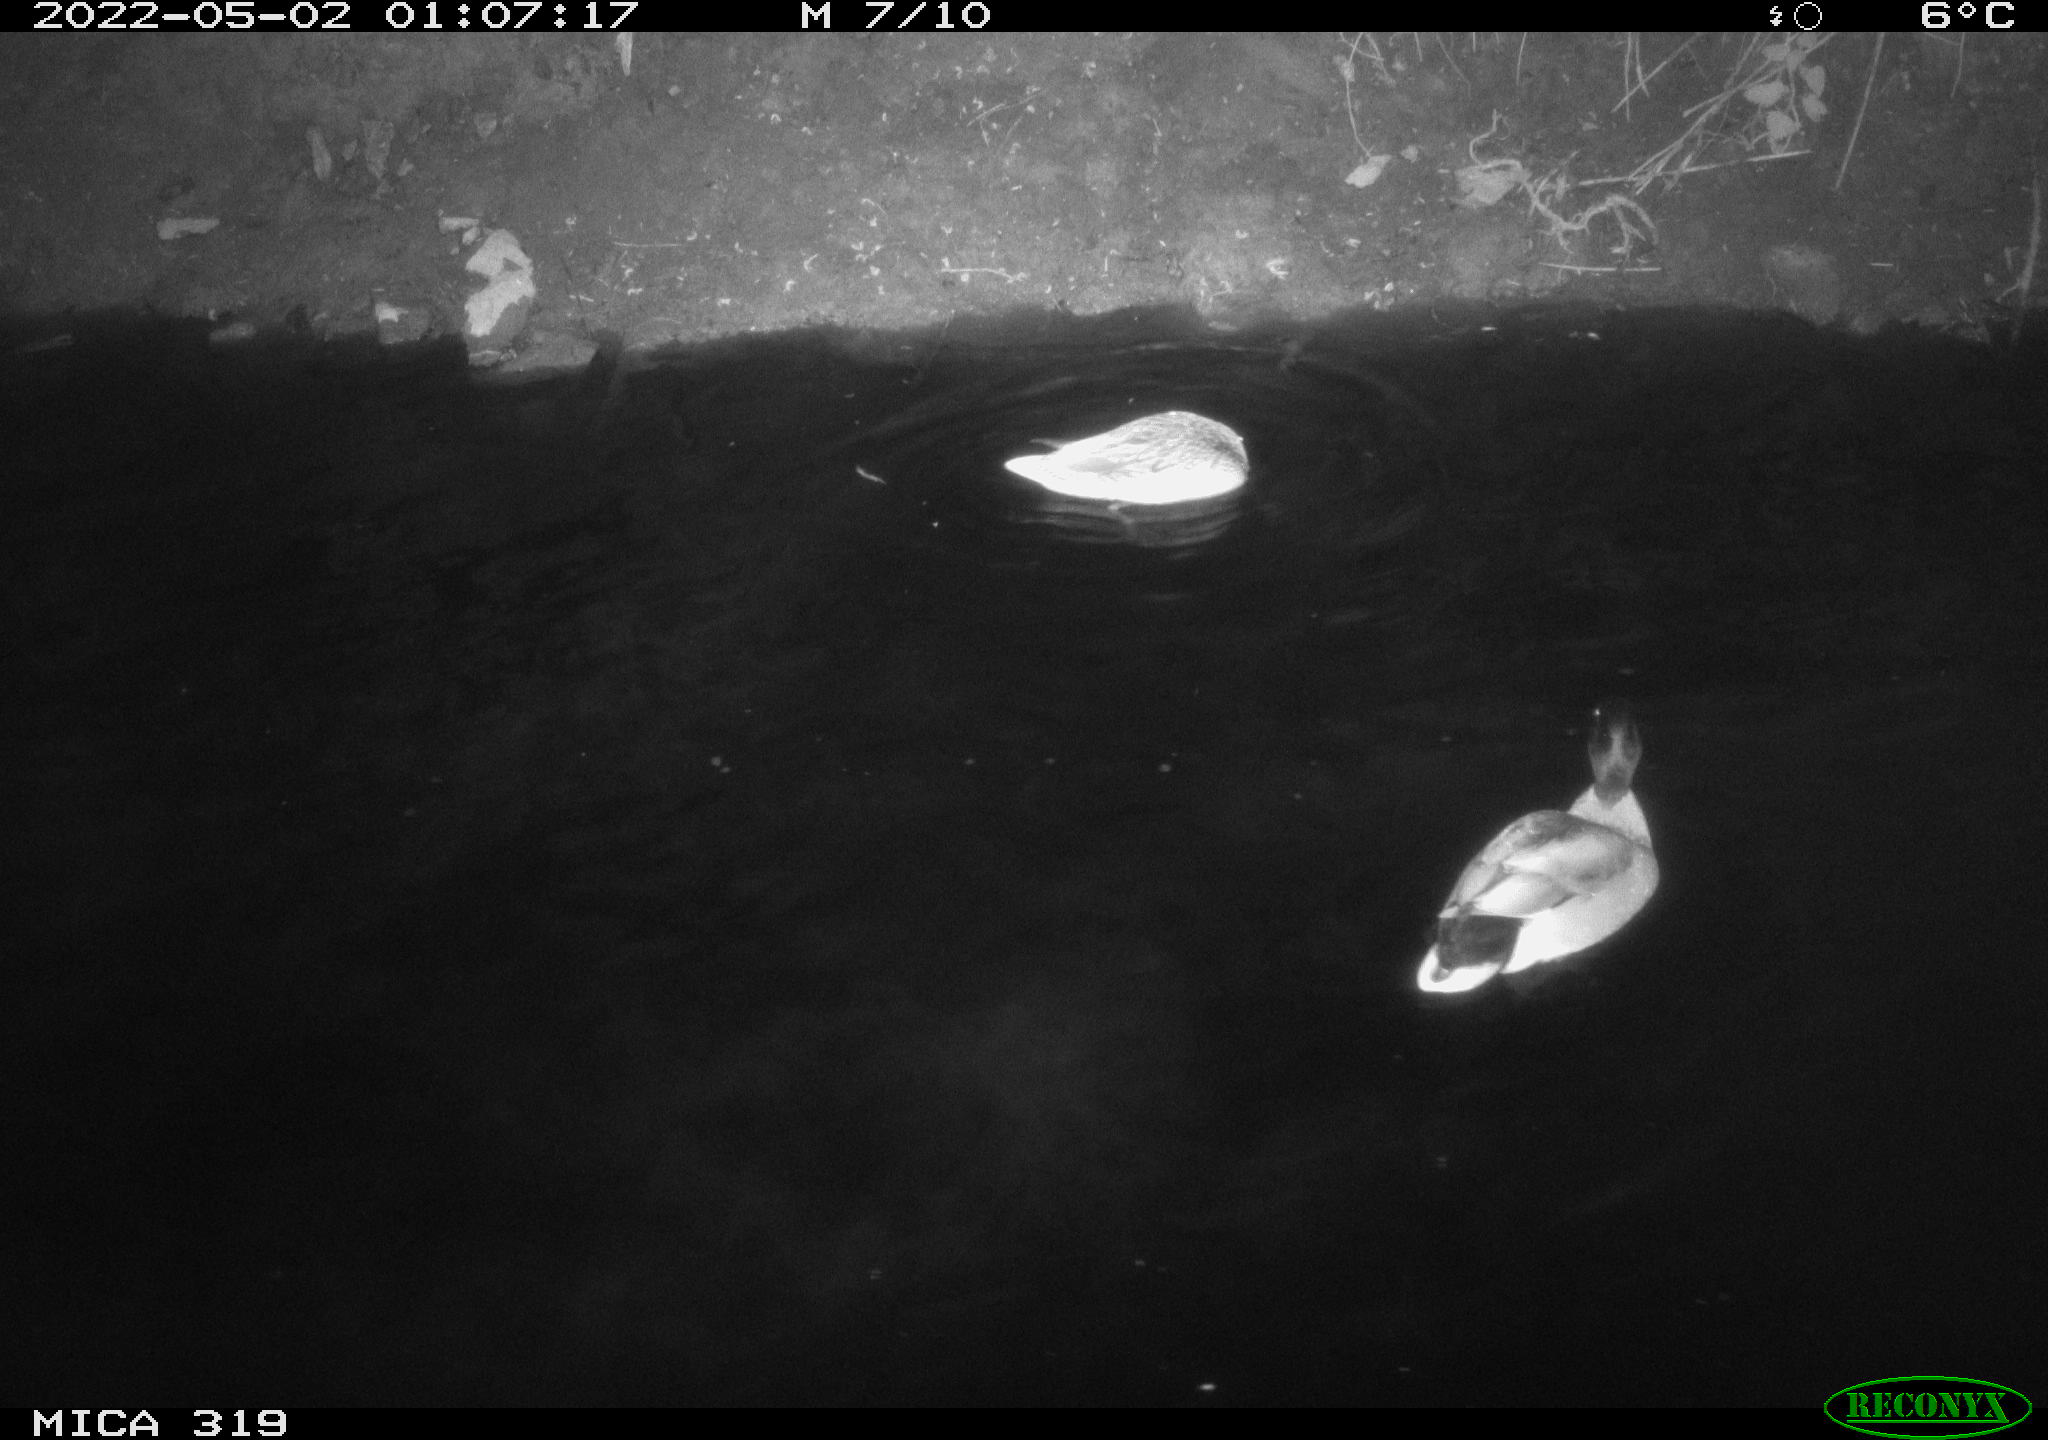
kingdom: Animalia
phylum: Chordata
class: Aves
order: Anseriformes
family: Anatidae
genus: Anas
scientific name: Anas platyrhynchos
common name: Mallard
